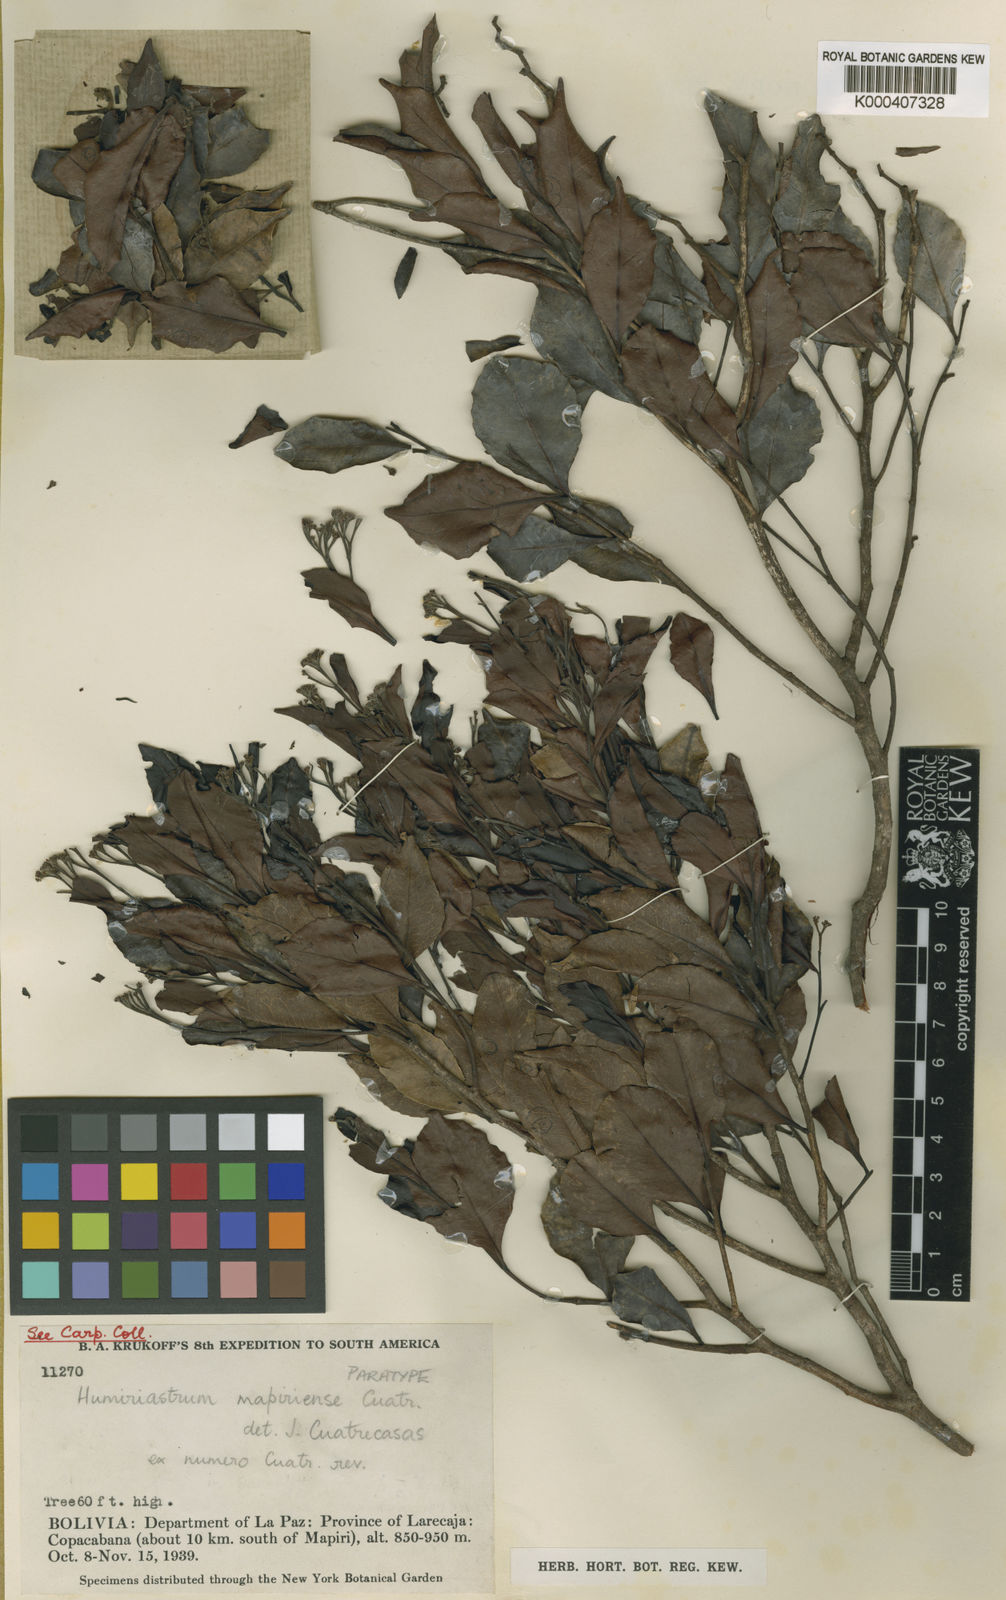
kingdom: Plantae
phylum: Tracheophyta
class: Magnoliopsida
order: Malpighiales
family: Humiriaceae
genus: Humiriastrum
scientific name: Humiriastrum mapiriense
